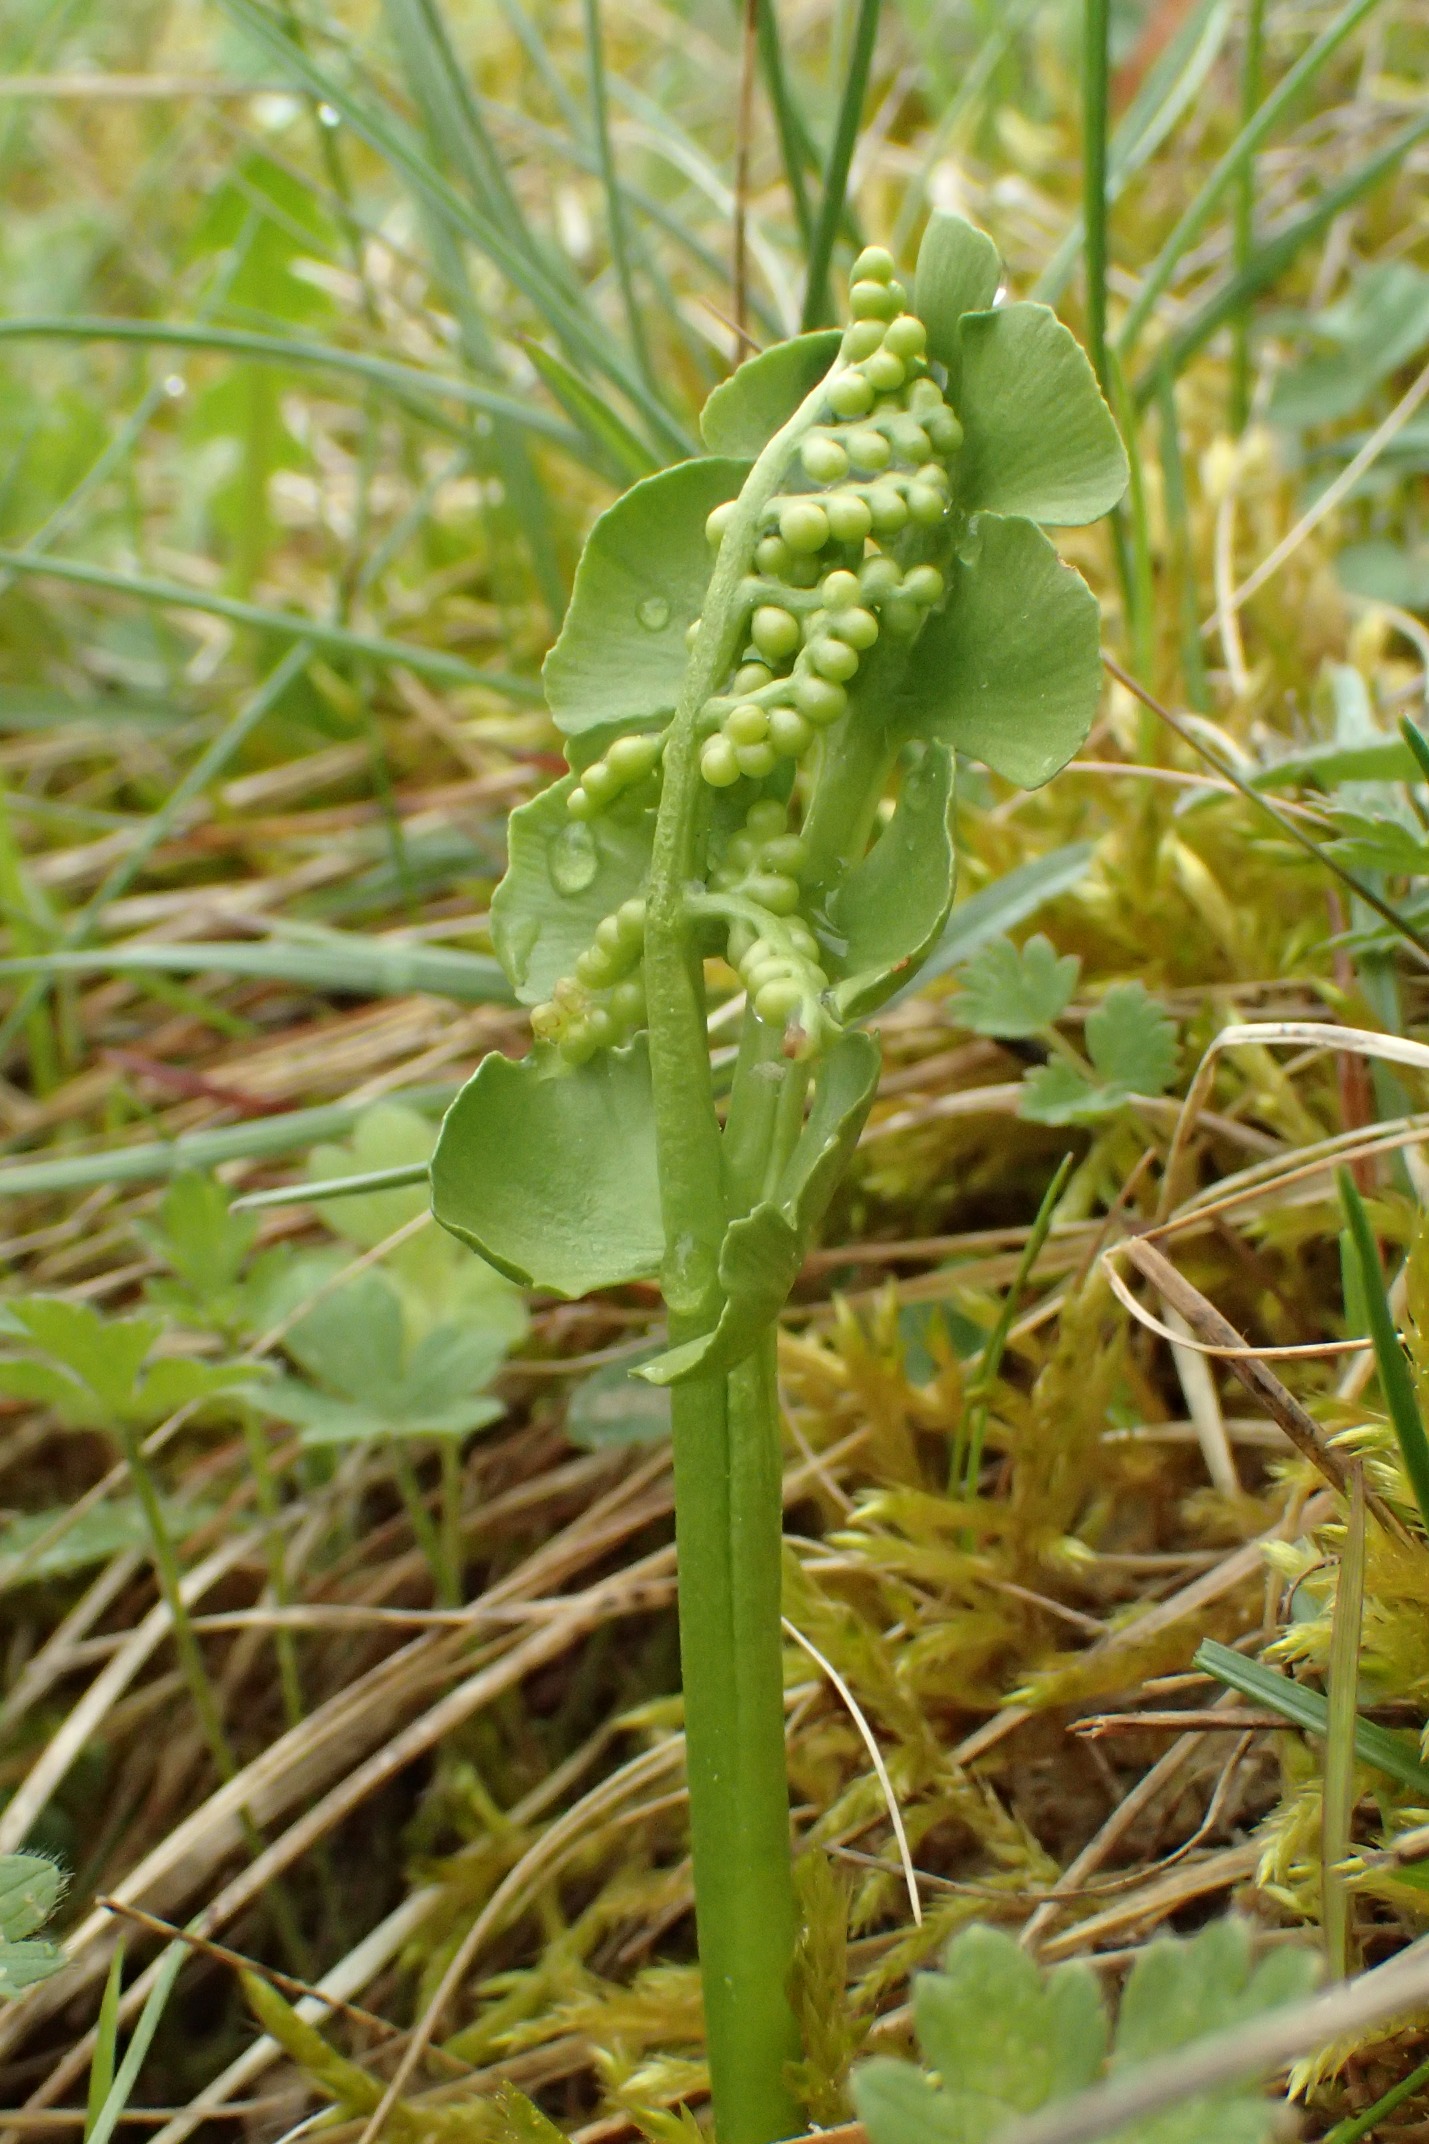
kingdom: Plantae
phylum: Tracheophyta
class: Polypodiopsida
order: Ophioglossales
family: Ophioglossaceae
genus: Botrychium
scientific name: Botrychium lunaria
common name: Almindelig månerude
